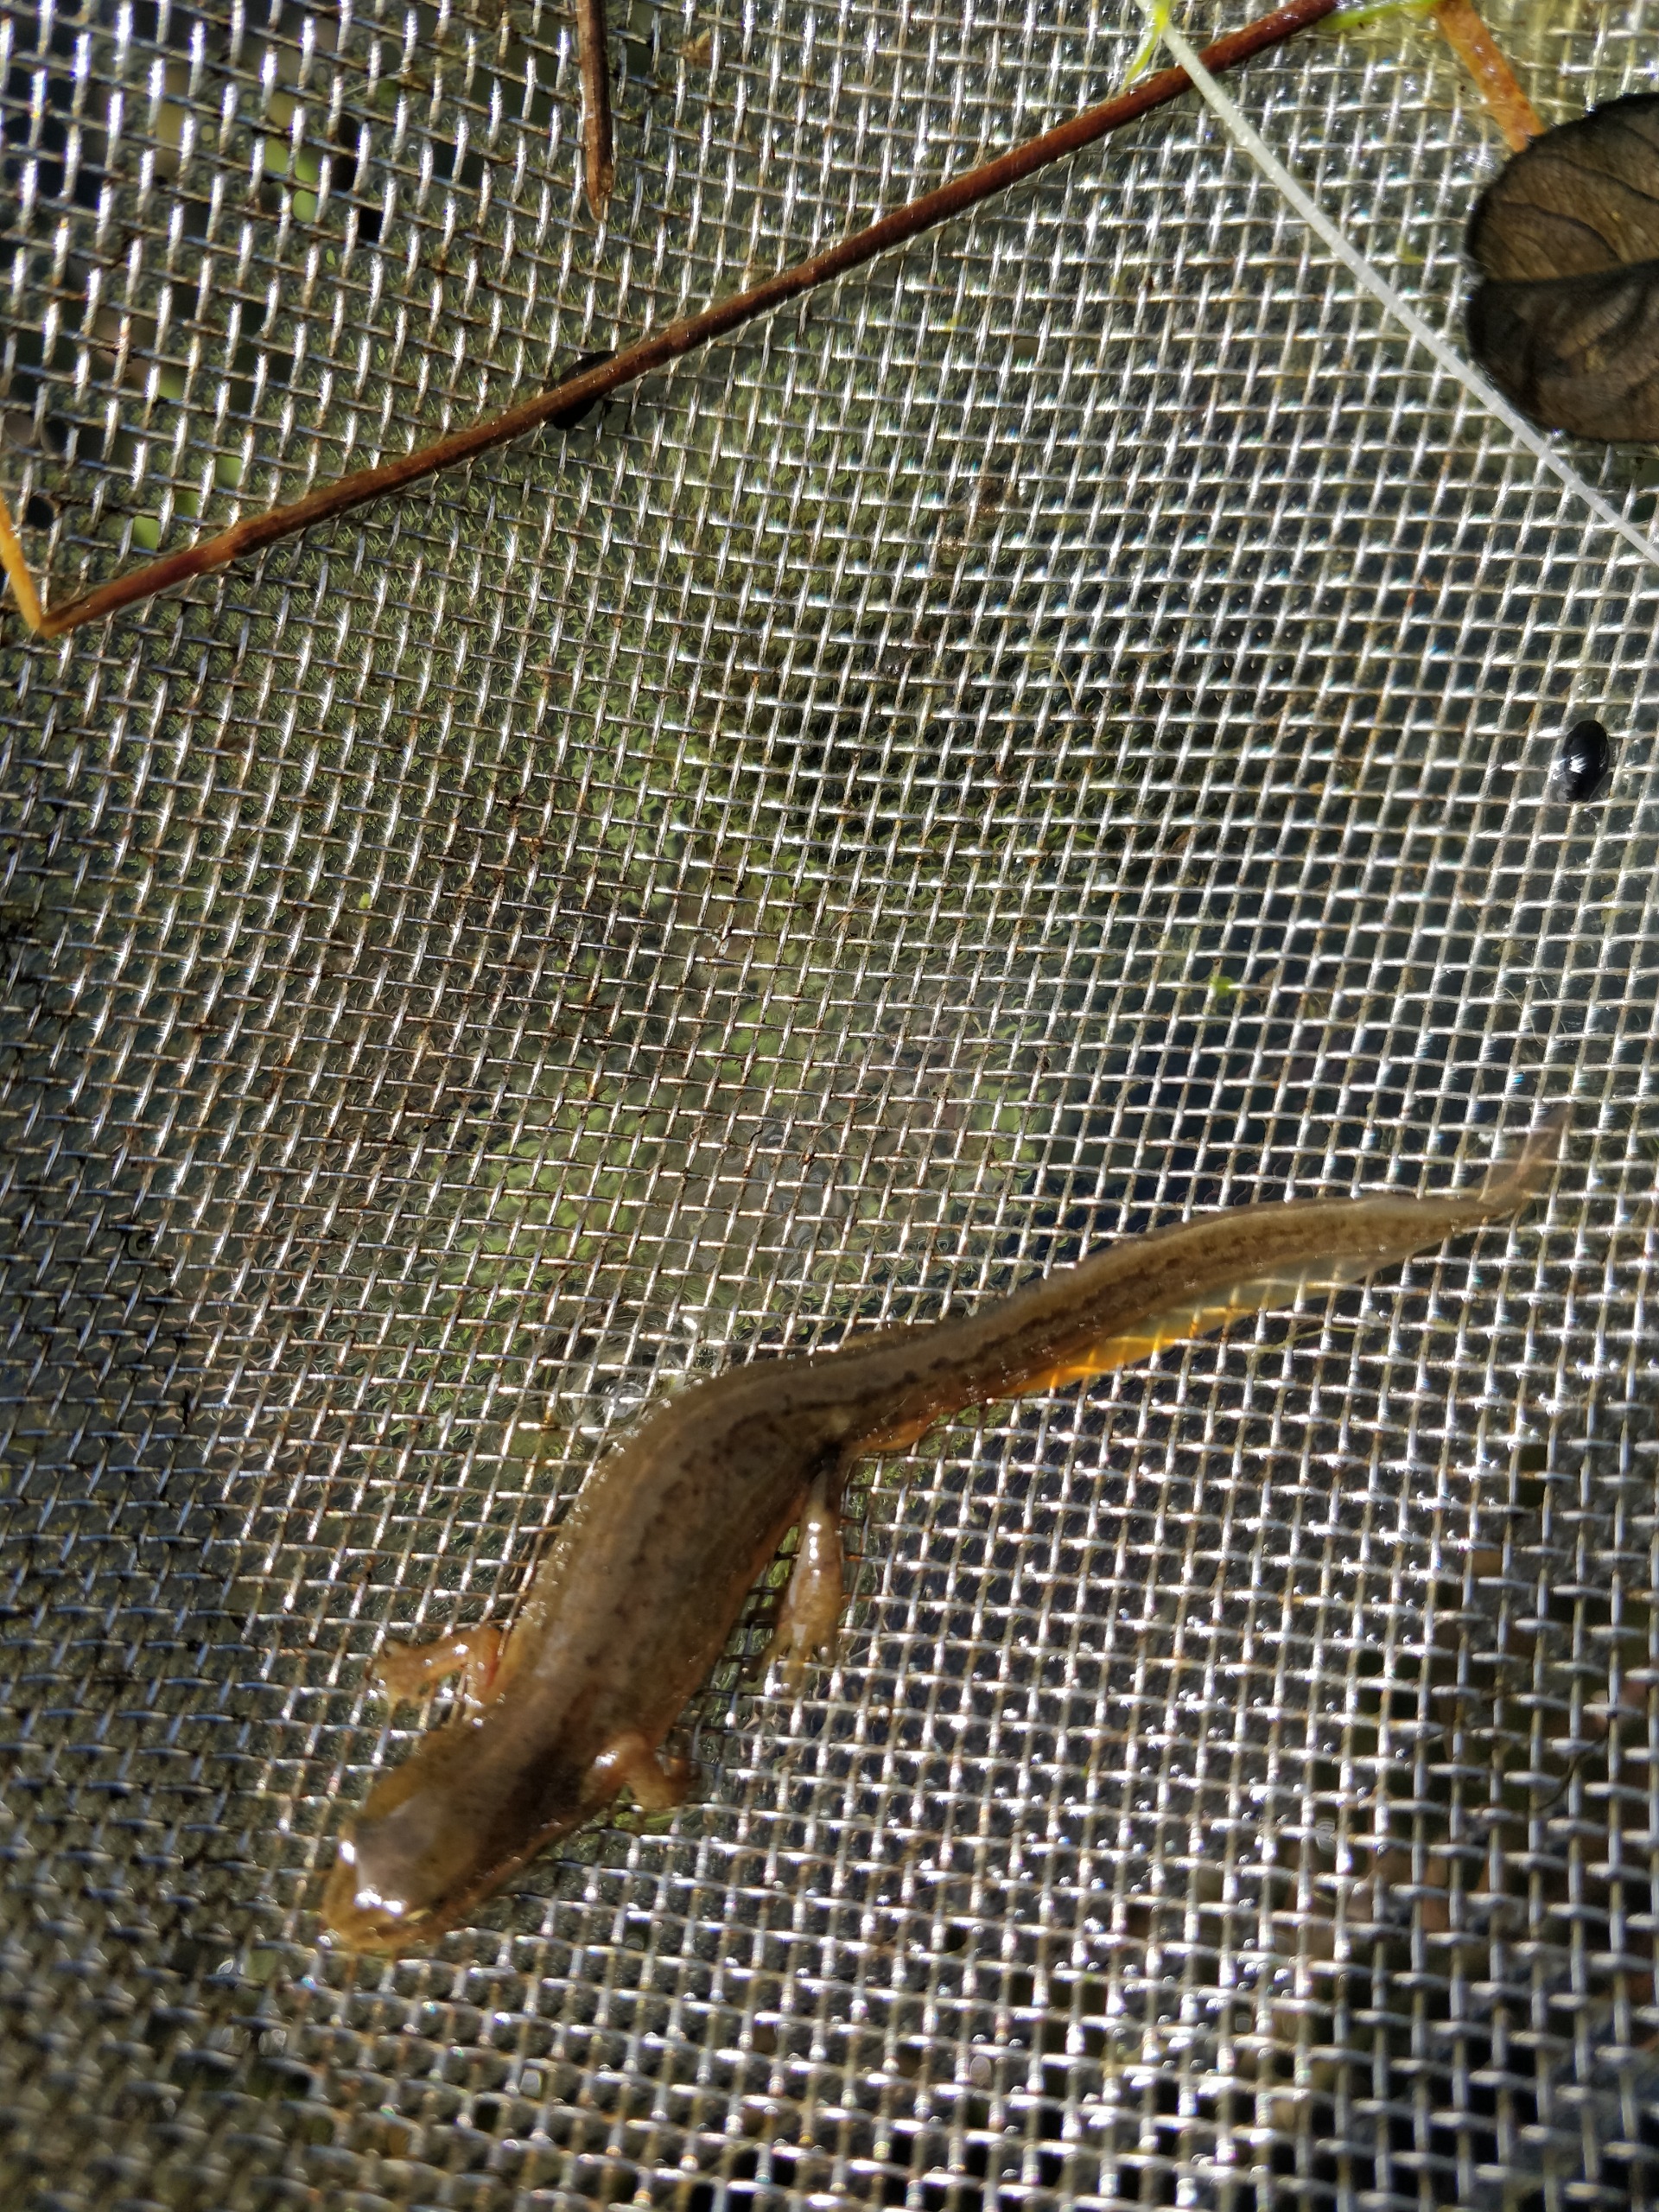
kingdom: Animalia
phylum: Chordata
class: Amphibia
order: Caudata
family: Salamandridae
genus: Lissotriton
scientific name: Lissotriton vulgaris
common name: Lille vandsalamander
